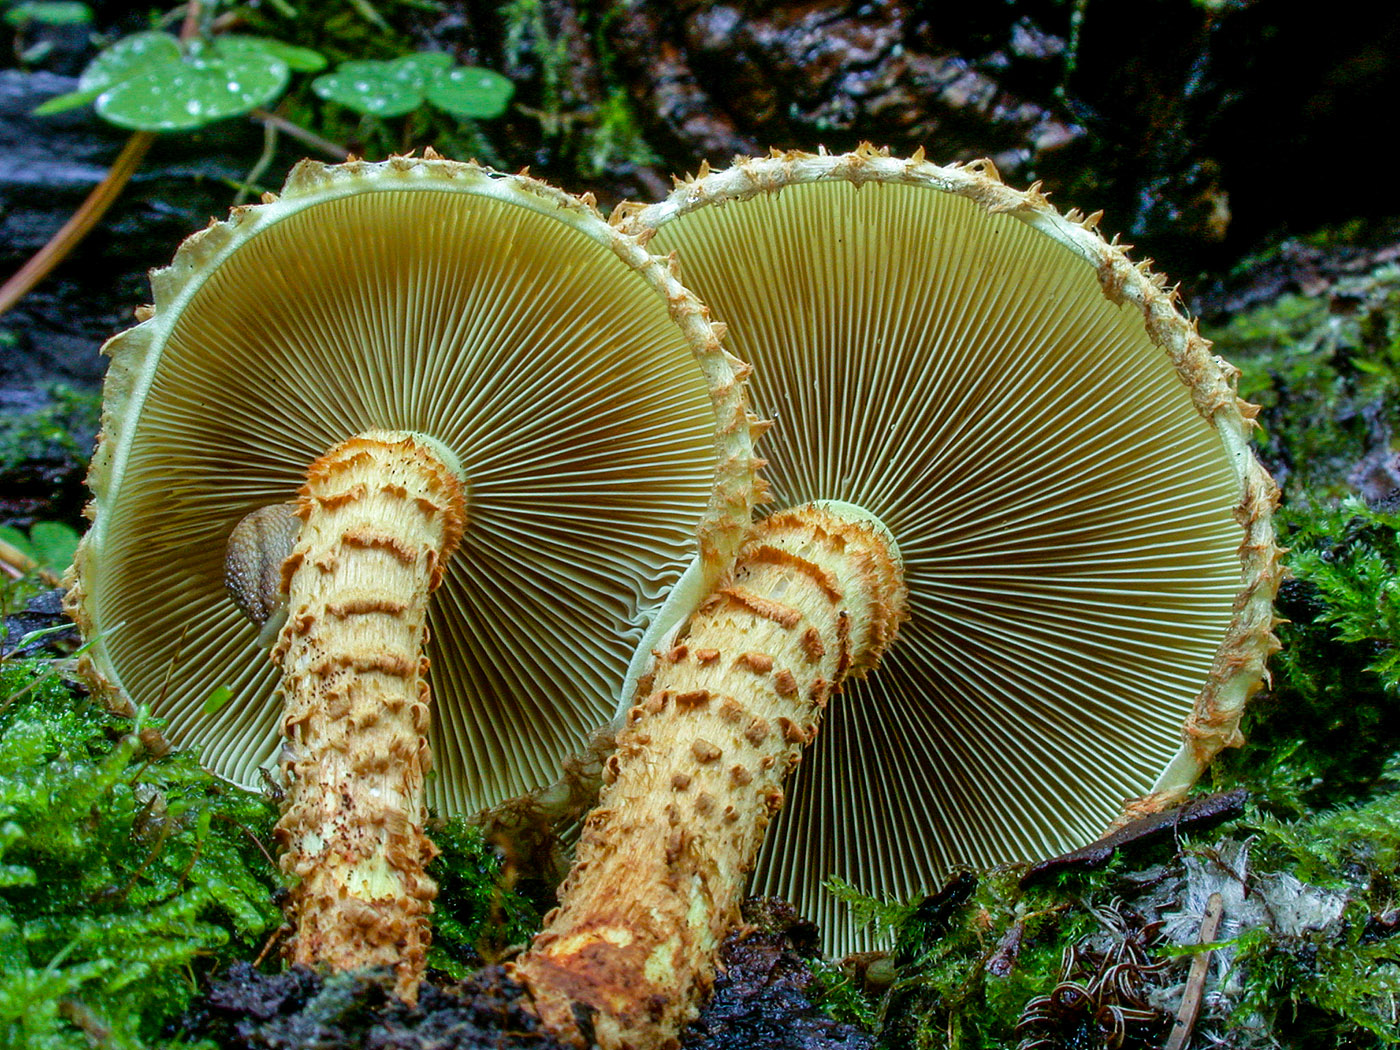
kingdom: Fungi
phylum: Basidiomycota
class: Agaricomycetes
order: Agaricales
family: Strophariaceae
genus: Pholiota
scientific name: Pholiota squarrosa
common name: krumskællet skælhat
